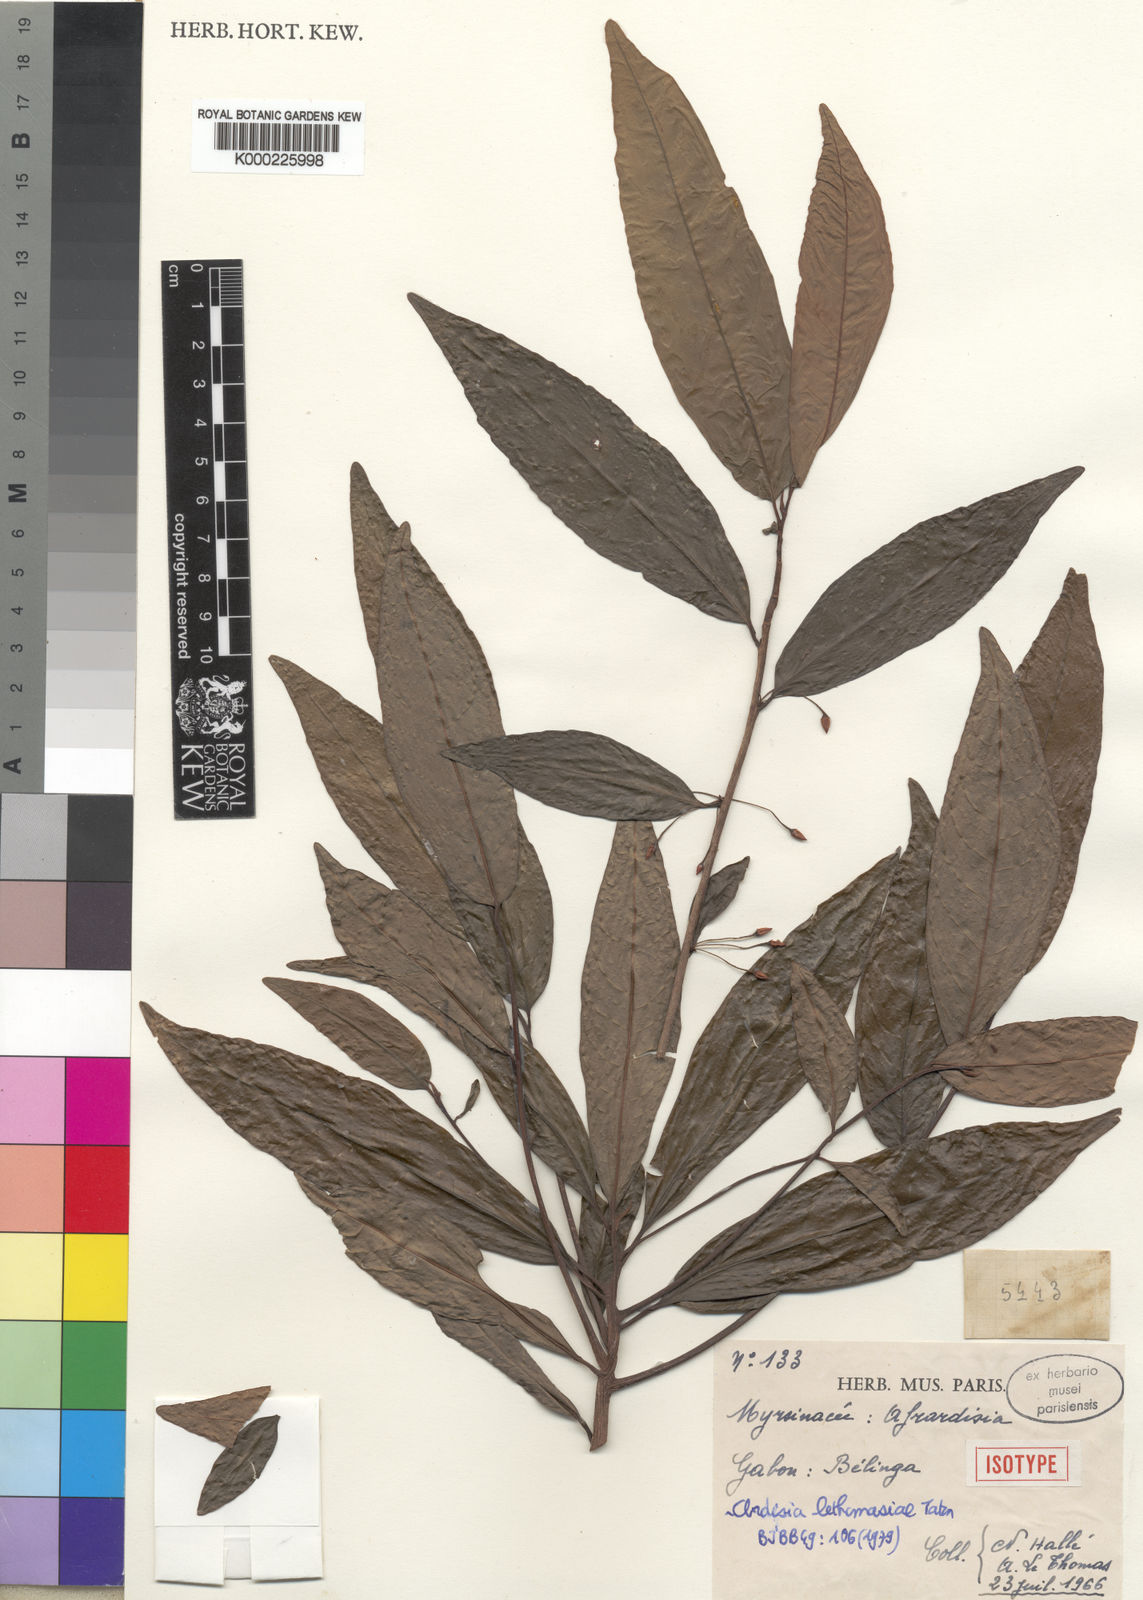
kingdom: Plantae
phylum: Tracheophyta
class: Magnoliopsida
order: Ericales
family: Primulaceae
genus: Ardisia
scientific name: Ardisia lethomasiae
